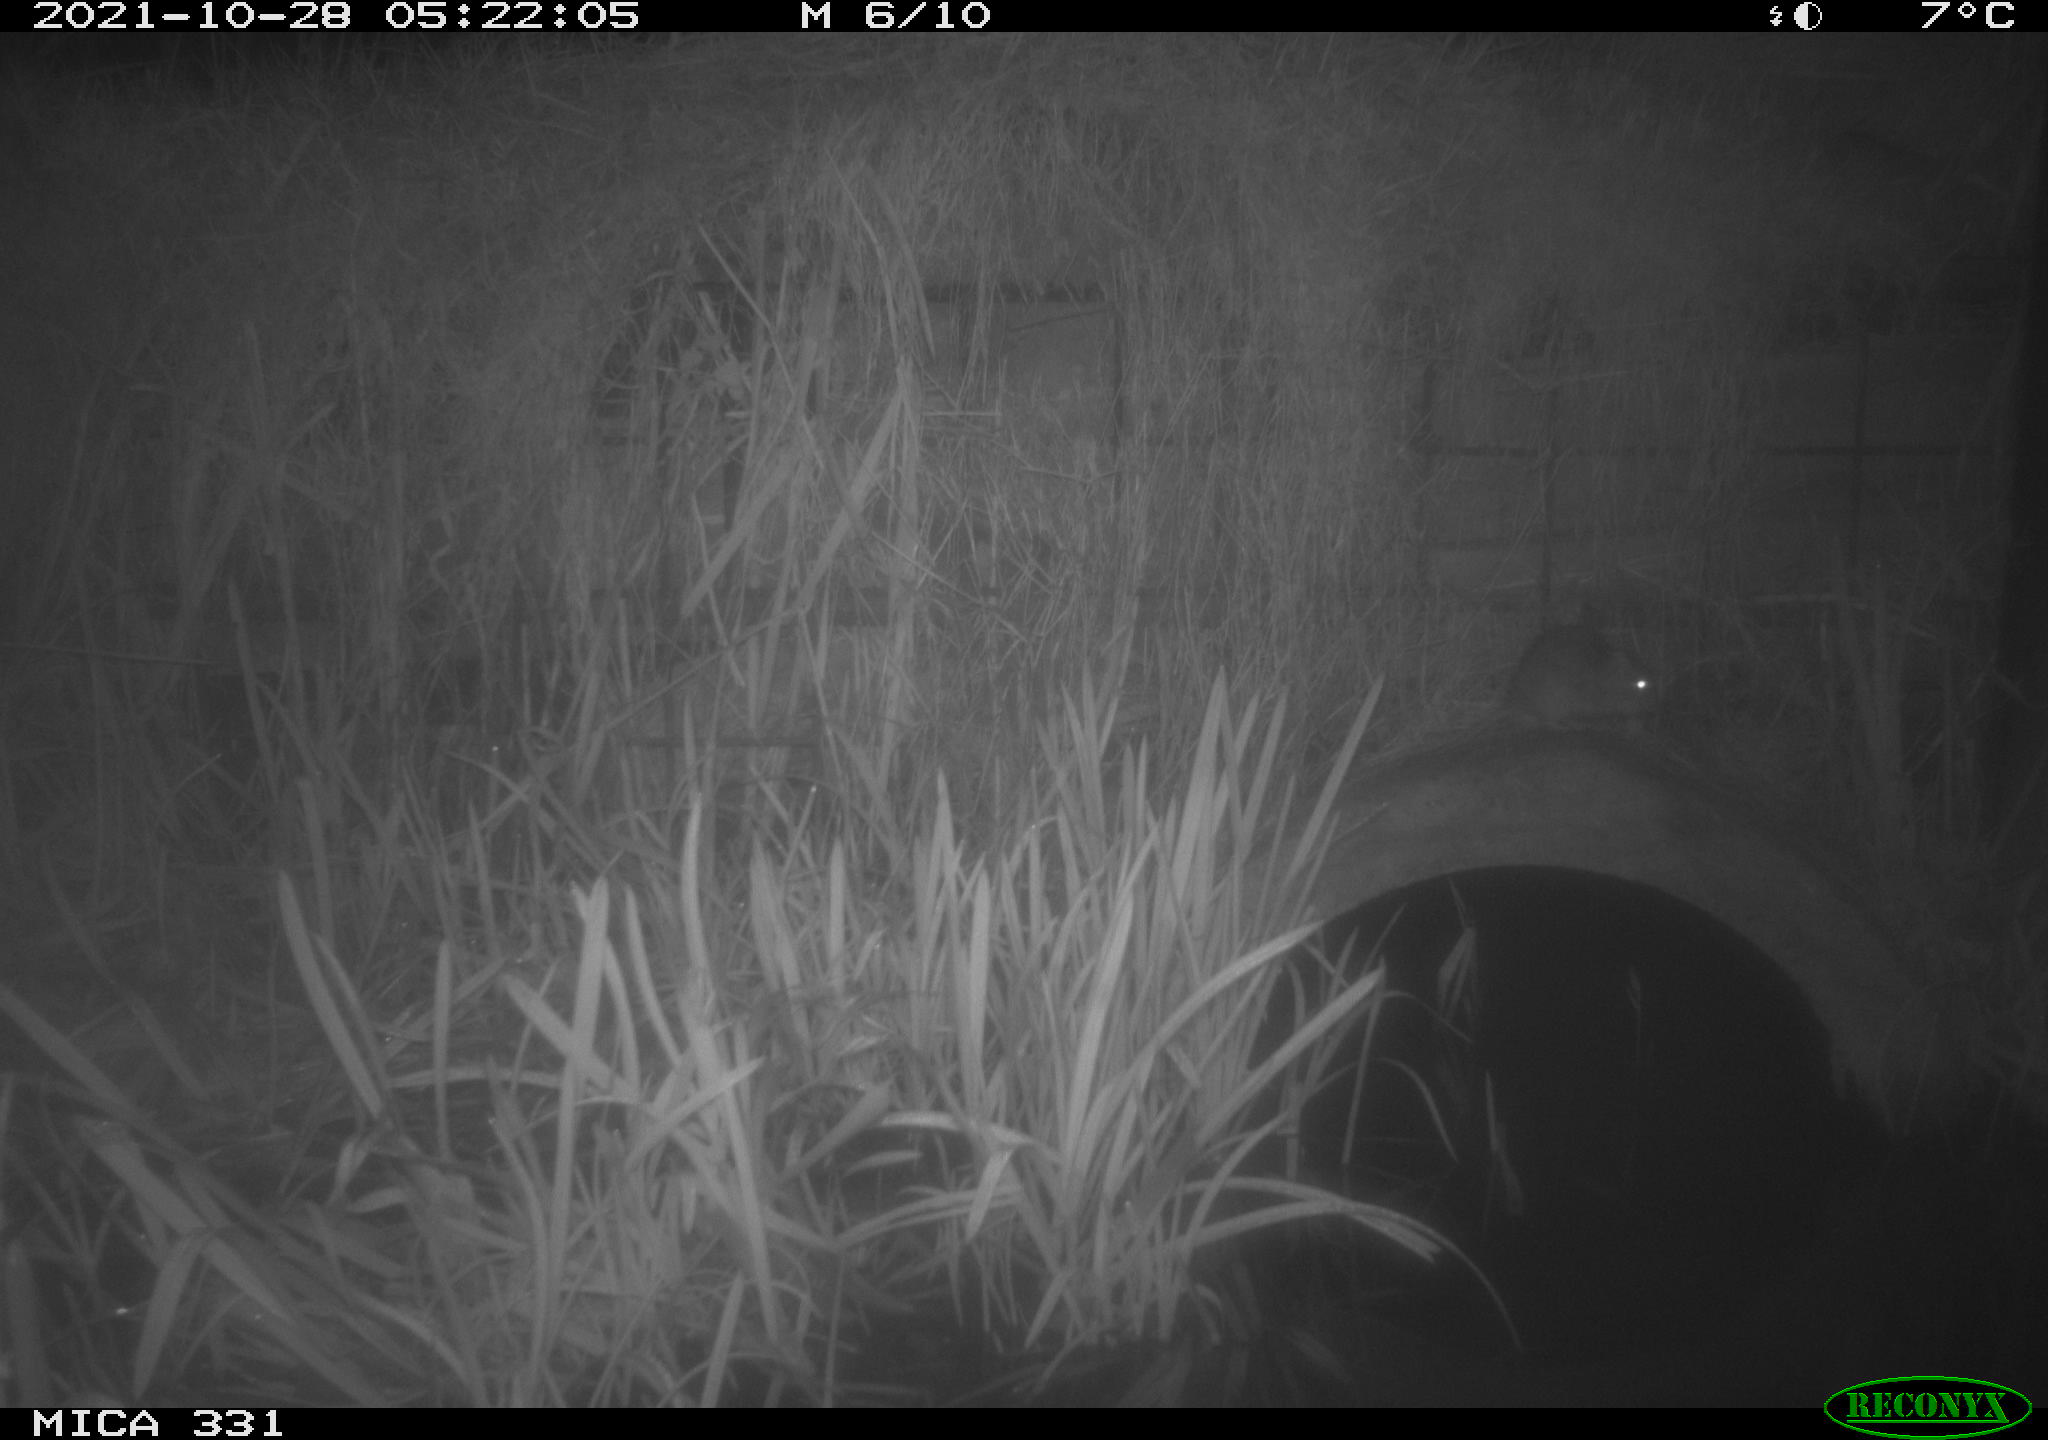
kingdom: Animalia
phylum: Chordata
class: Mammalia
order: Rodentia
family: Muridae
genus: Rattus
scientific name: Rattus norvegicus
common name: Brown rat
